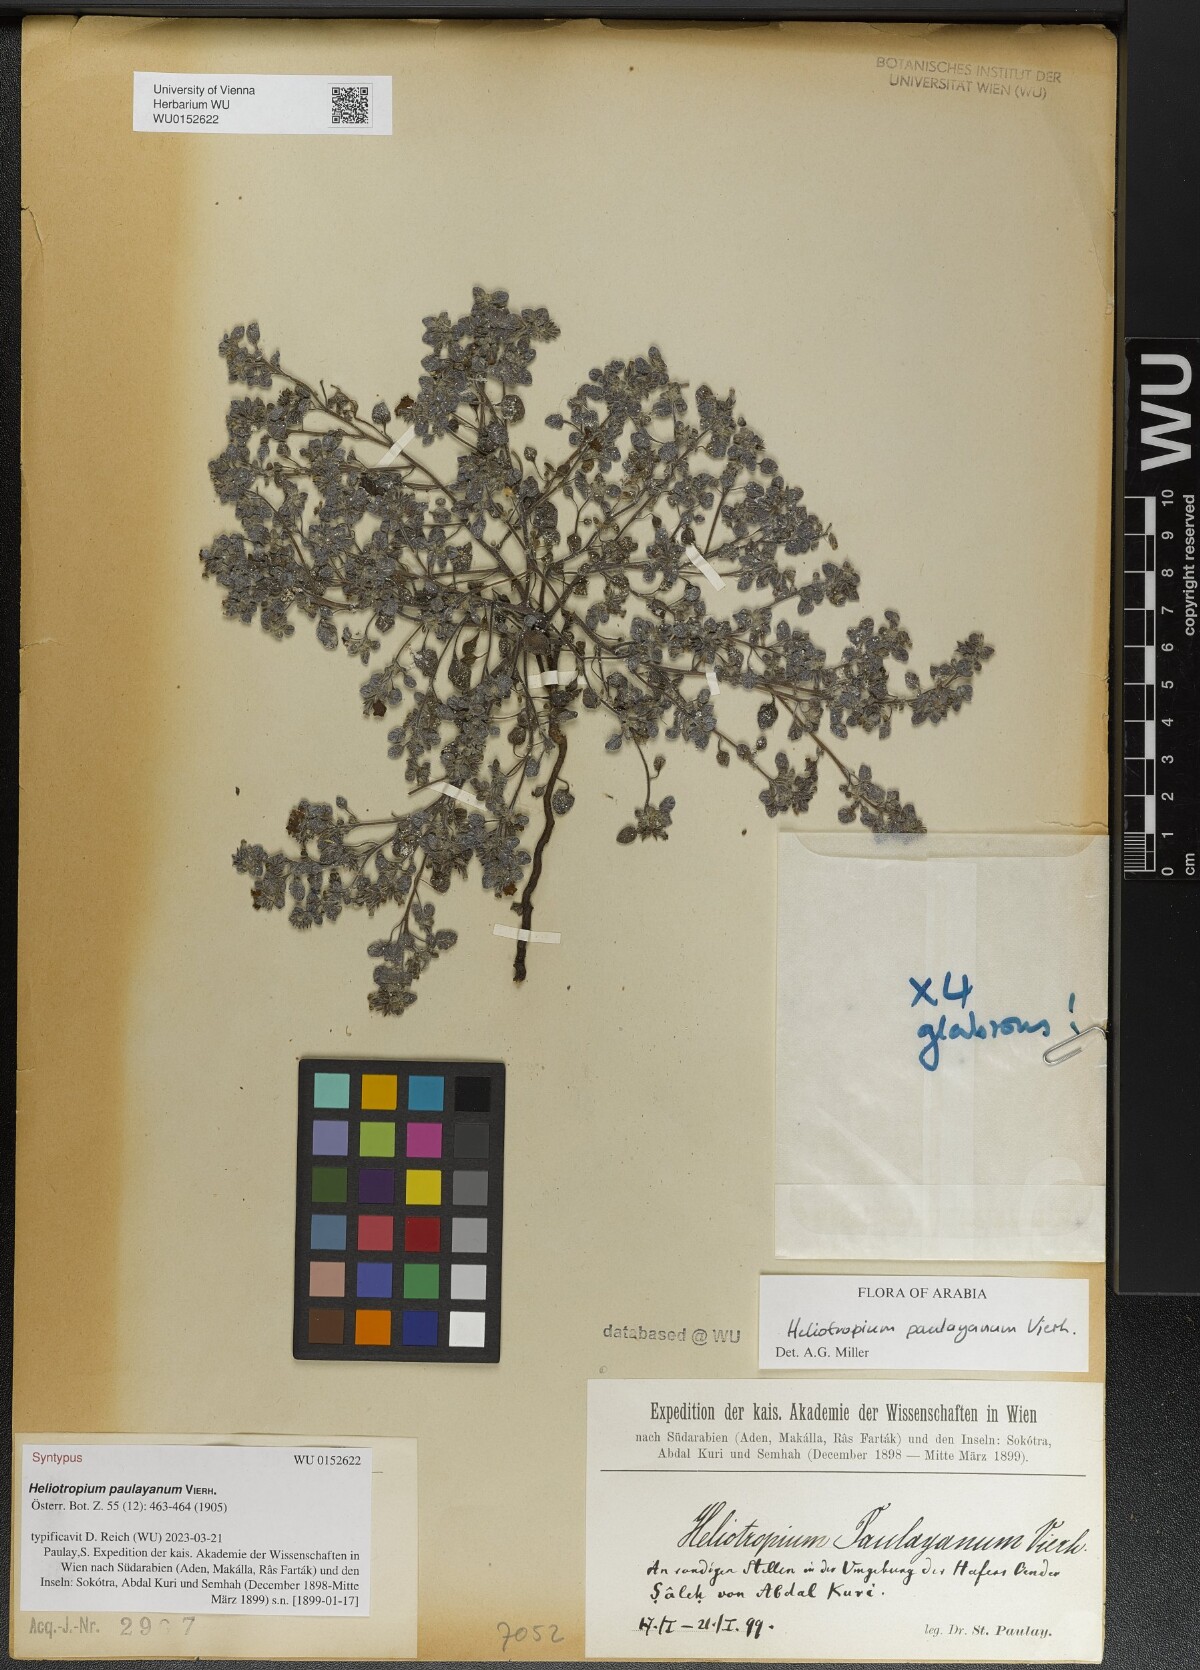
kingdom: Plantae
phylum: Tracheophyta
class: Magnoliopsida
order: Boraginales
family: Heliotropiaceae
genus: Heliotropium
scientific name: Heliotropium paulayanum
